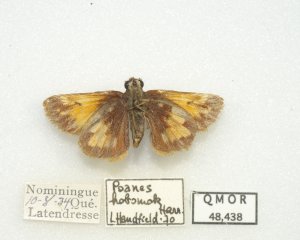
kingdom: Animalia
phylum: Arthropoda
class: Insecta
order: Lepidoptera
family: Hesperiidae
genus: Lon
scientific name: Lon hobomok
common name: Hobomok Skipper
